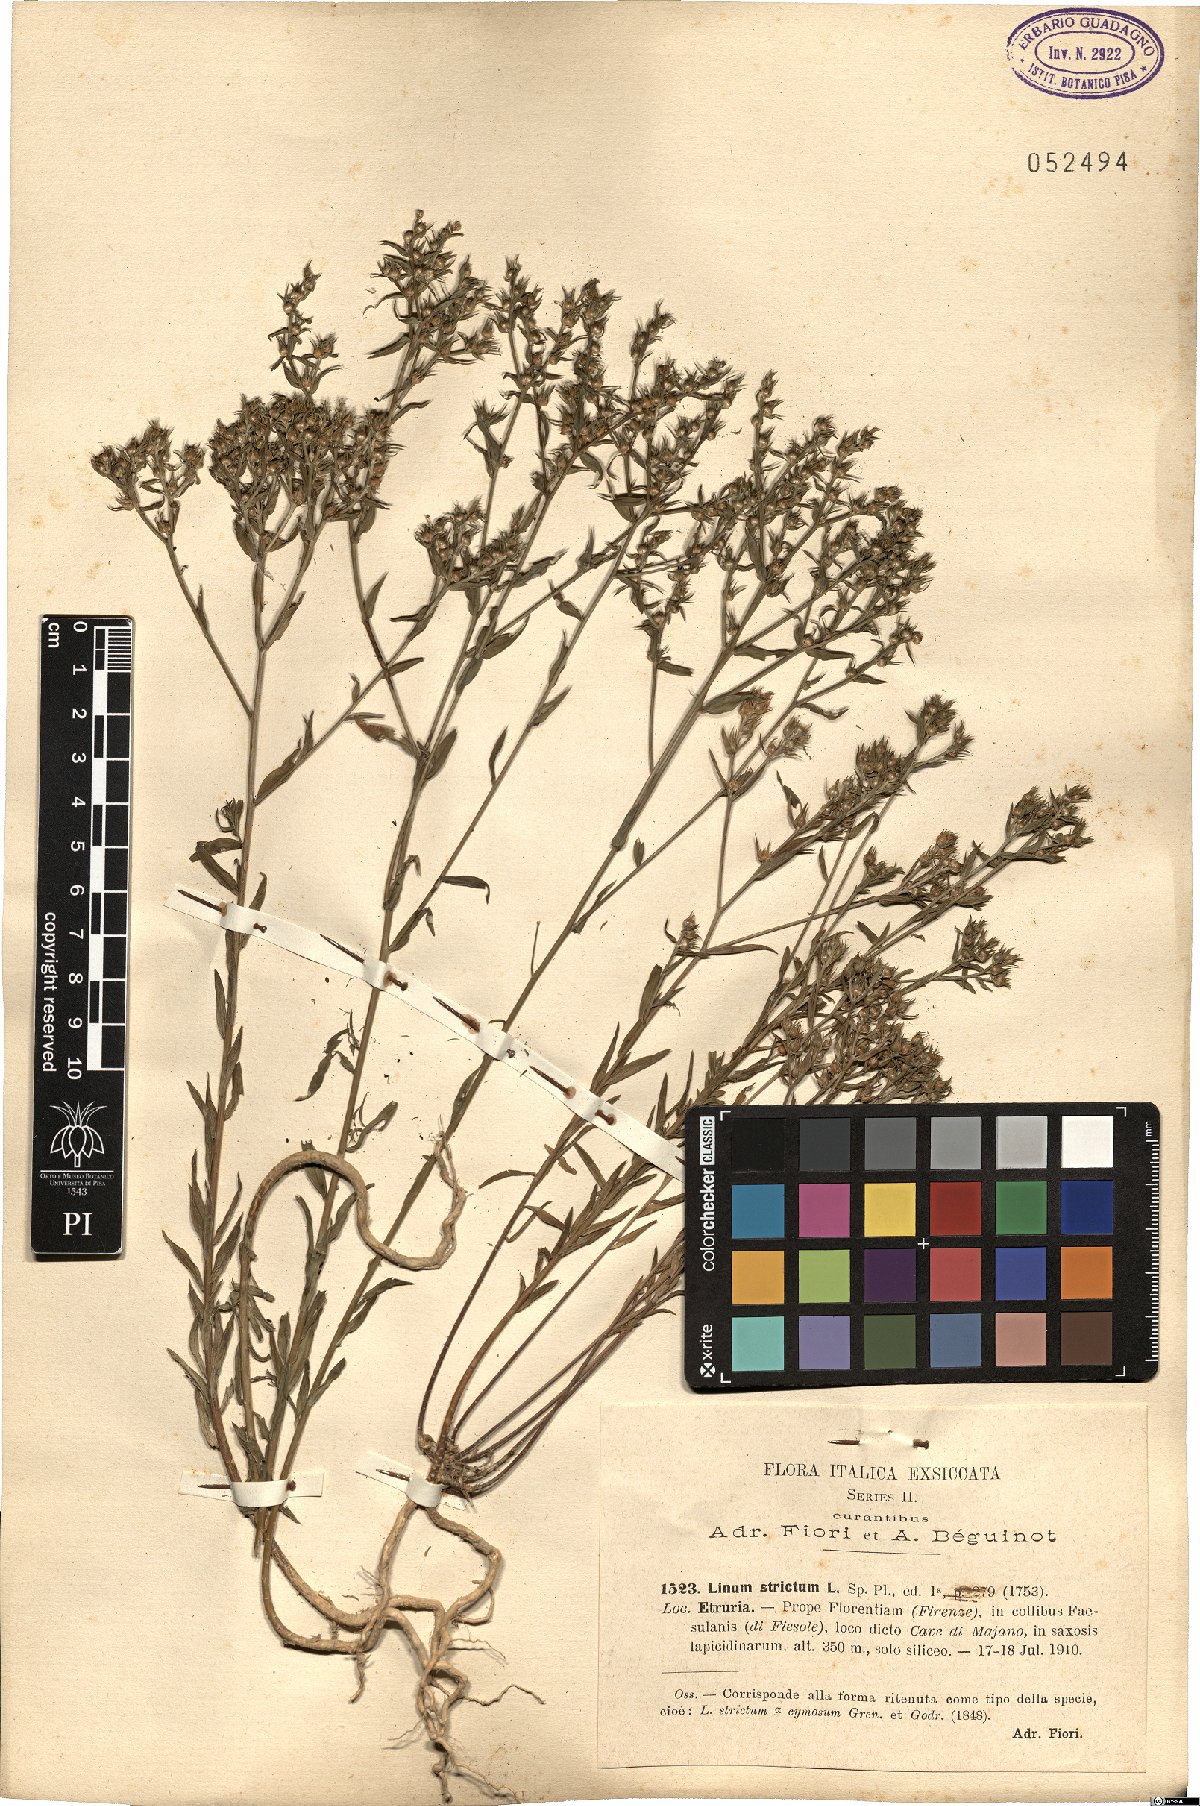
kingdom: Plantae
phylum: Tracheophyta
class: Magnoliopsida
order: Malpighiales
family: Linaceae
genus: Linum
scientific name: Linum strictum
